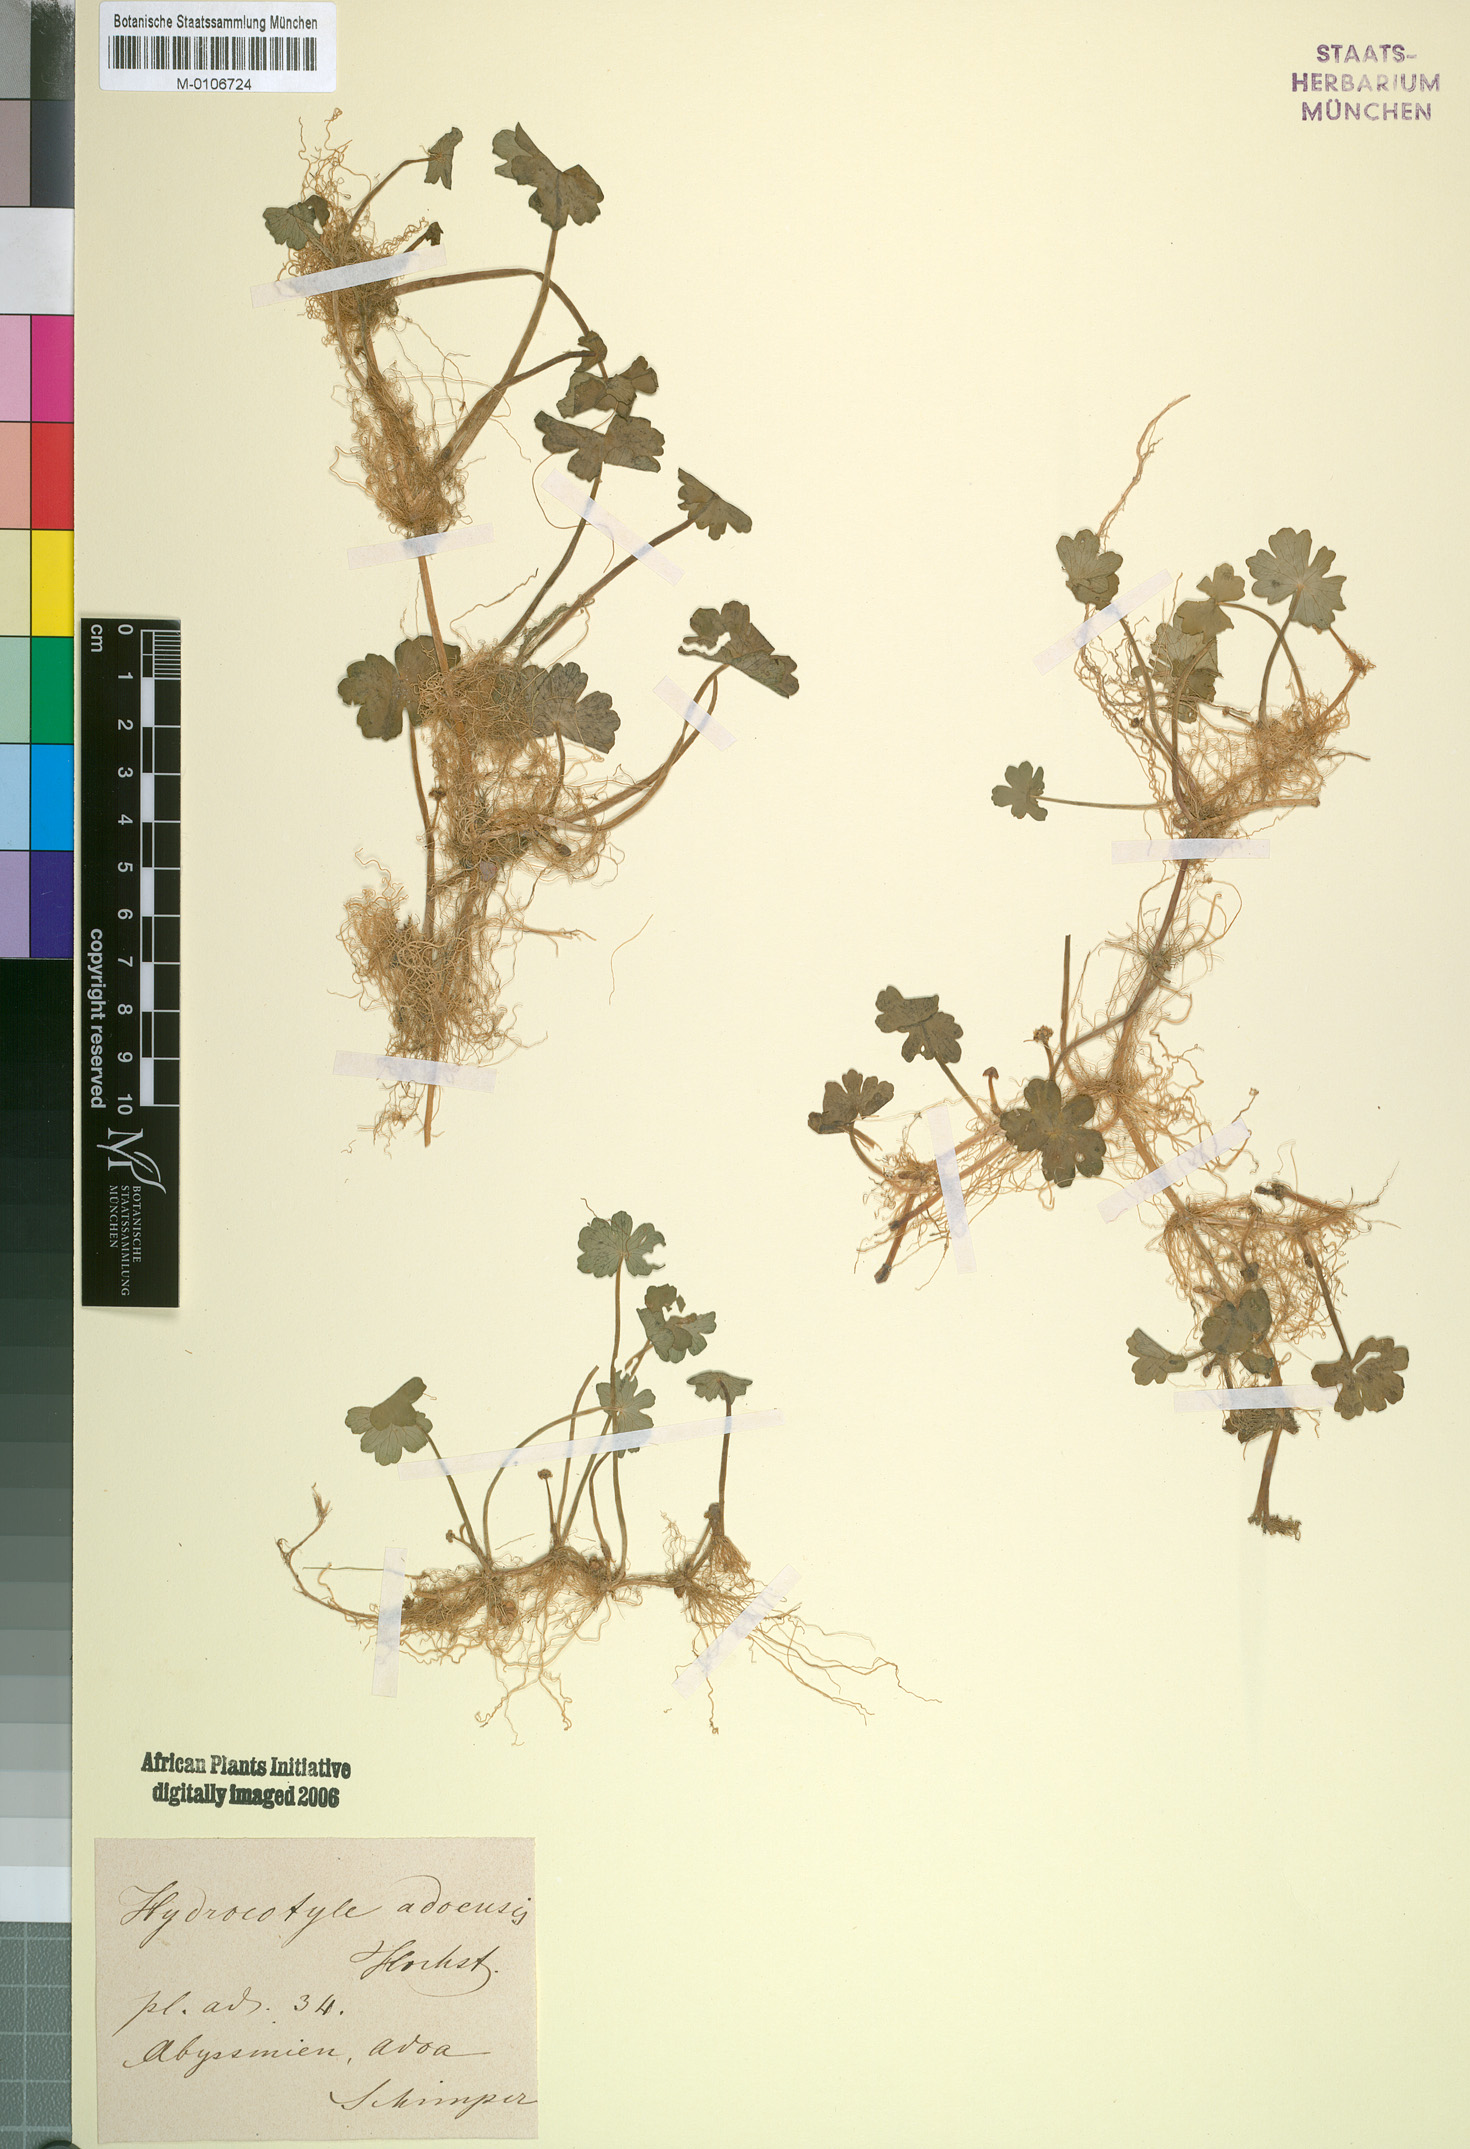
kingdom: Plantae
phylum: Tracheophyta
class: Magnoliopsida
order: Apiales
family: Araliaceae
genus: Hydrocotyle
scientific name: Hydrocotyle ranunculoides
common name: Floating pennywort
